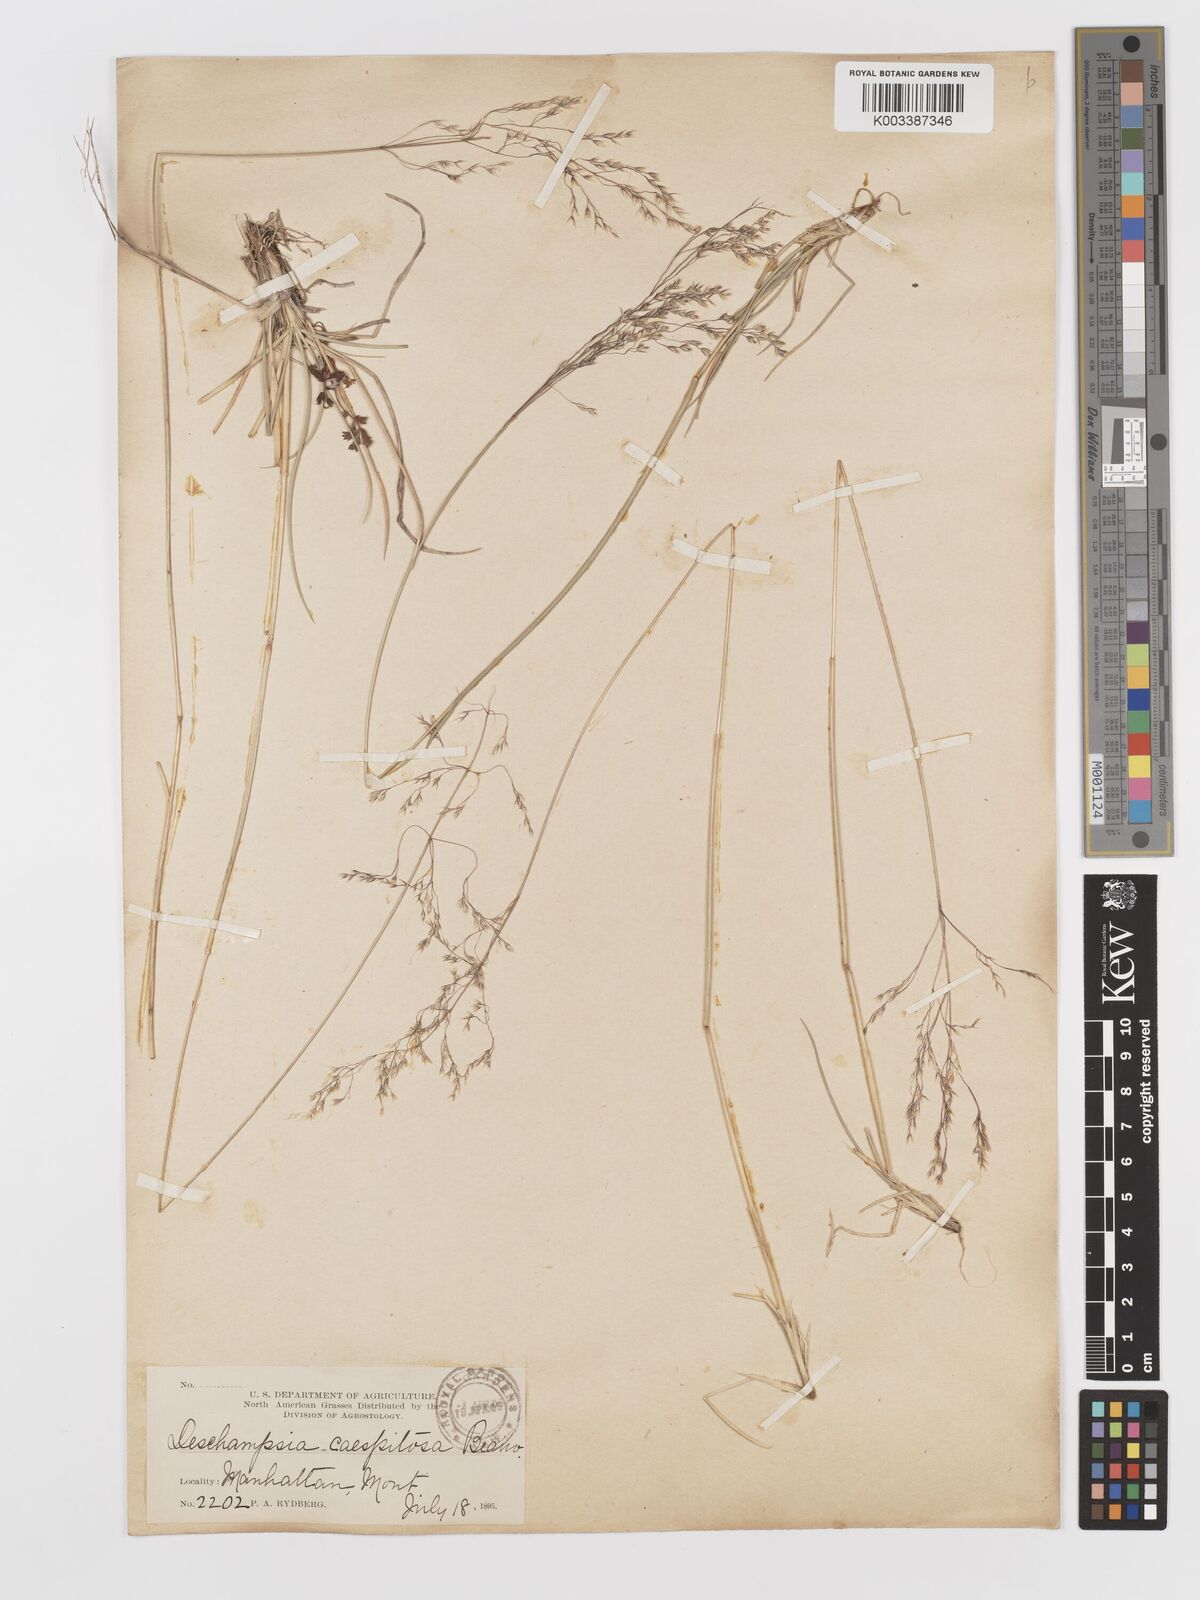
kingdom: Plantae
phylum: Tracheophyta
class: Liliopsida
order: Poales
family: Poaceae
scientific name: Poaceae
